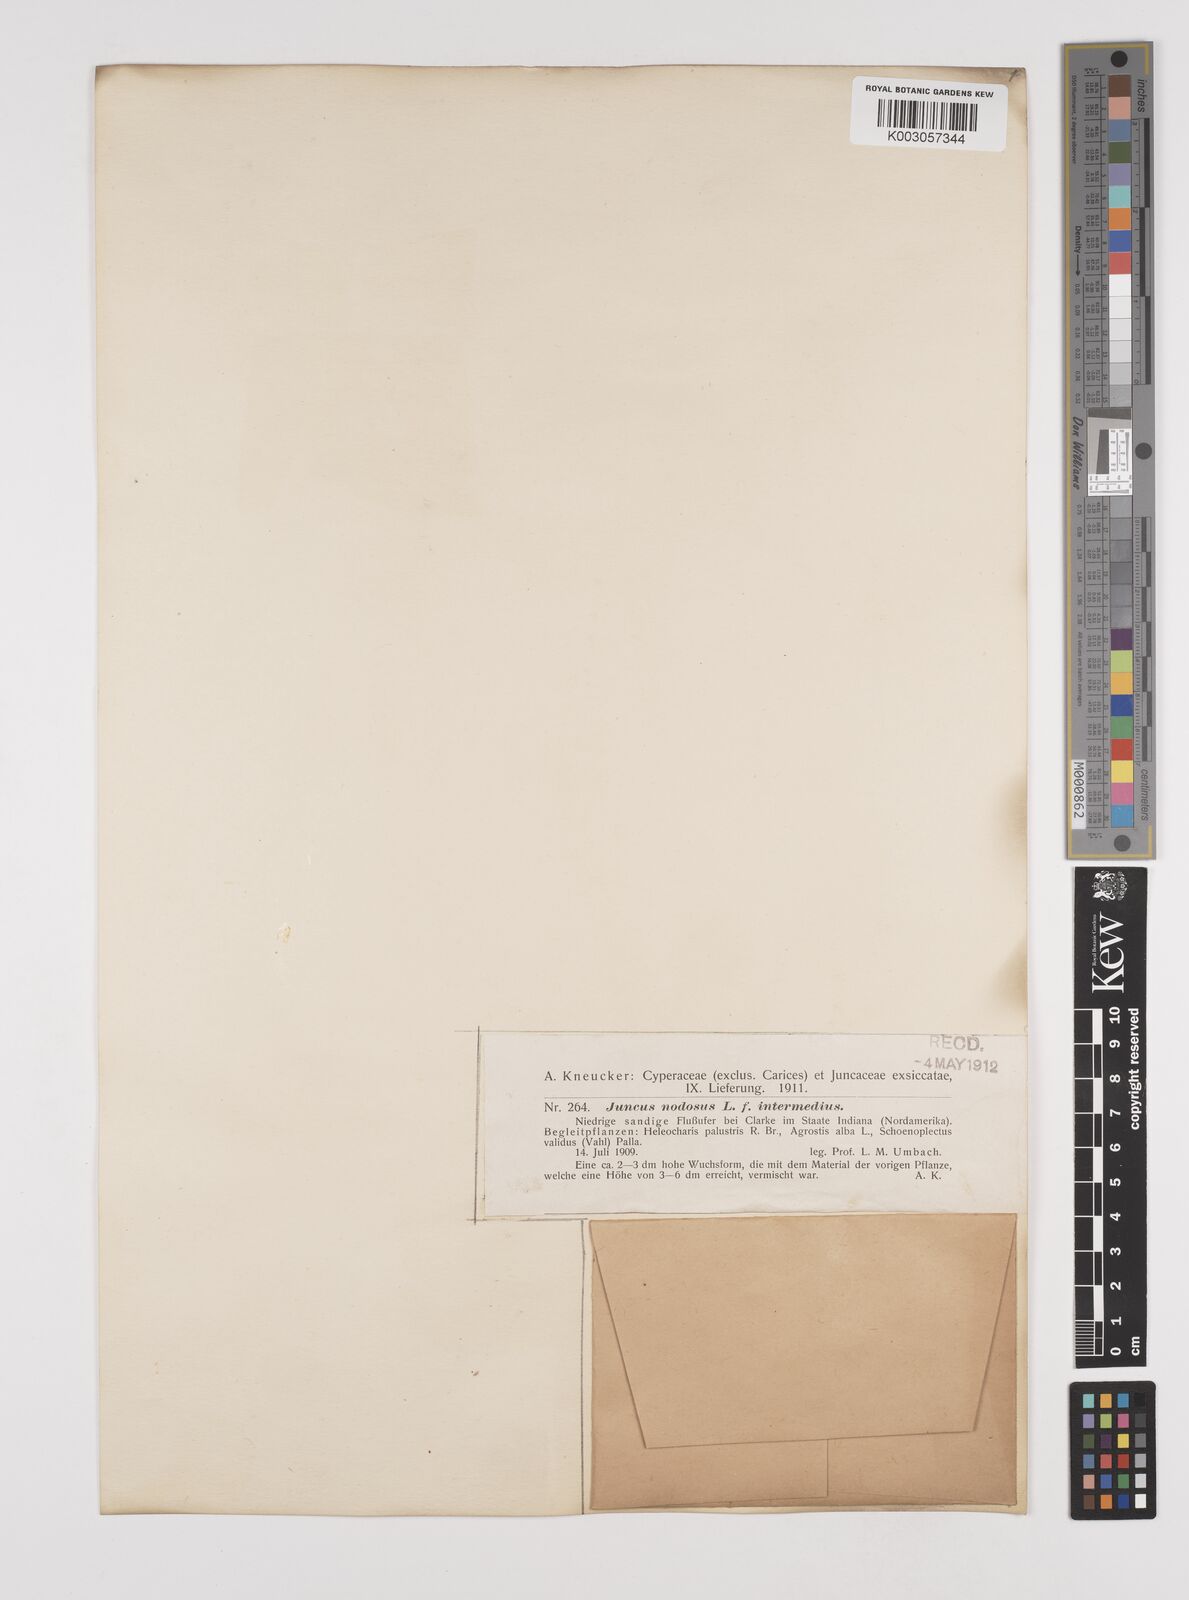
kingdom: Plantae
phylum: Tracheophyta
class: Liliopsida
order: Poales
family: Juncaceae
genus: Juncus
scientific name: Juncus nodosus
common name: Knotted rush
